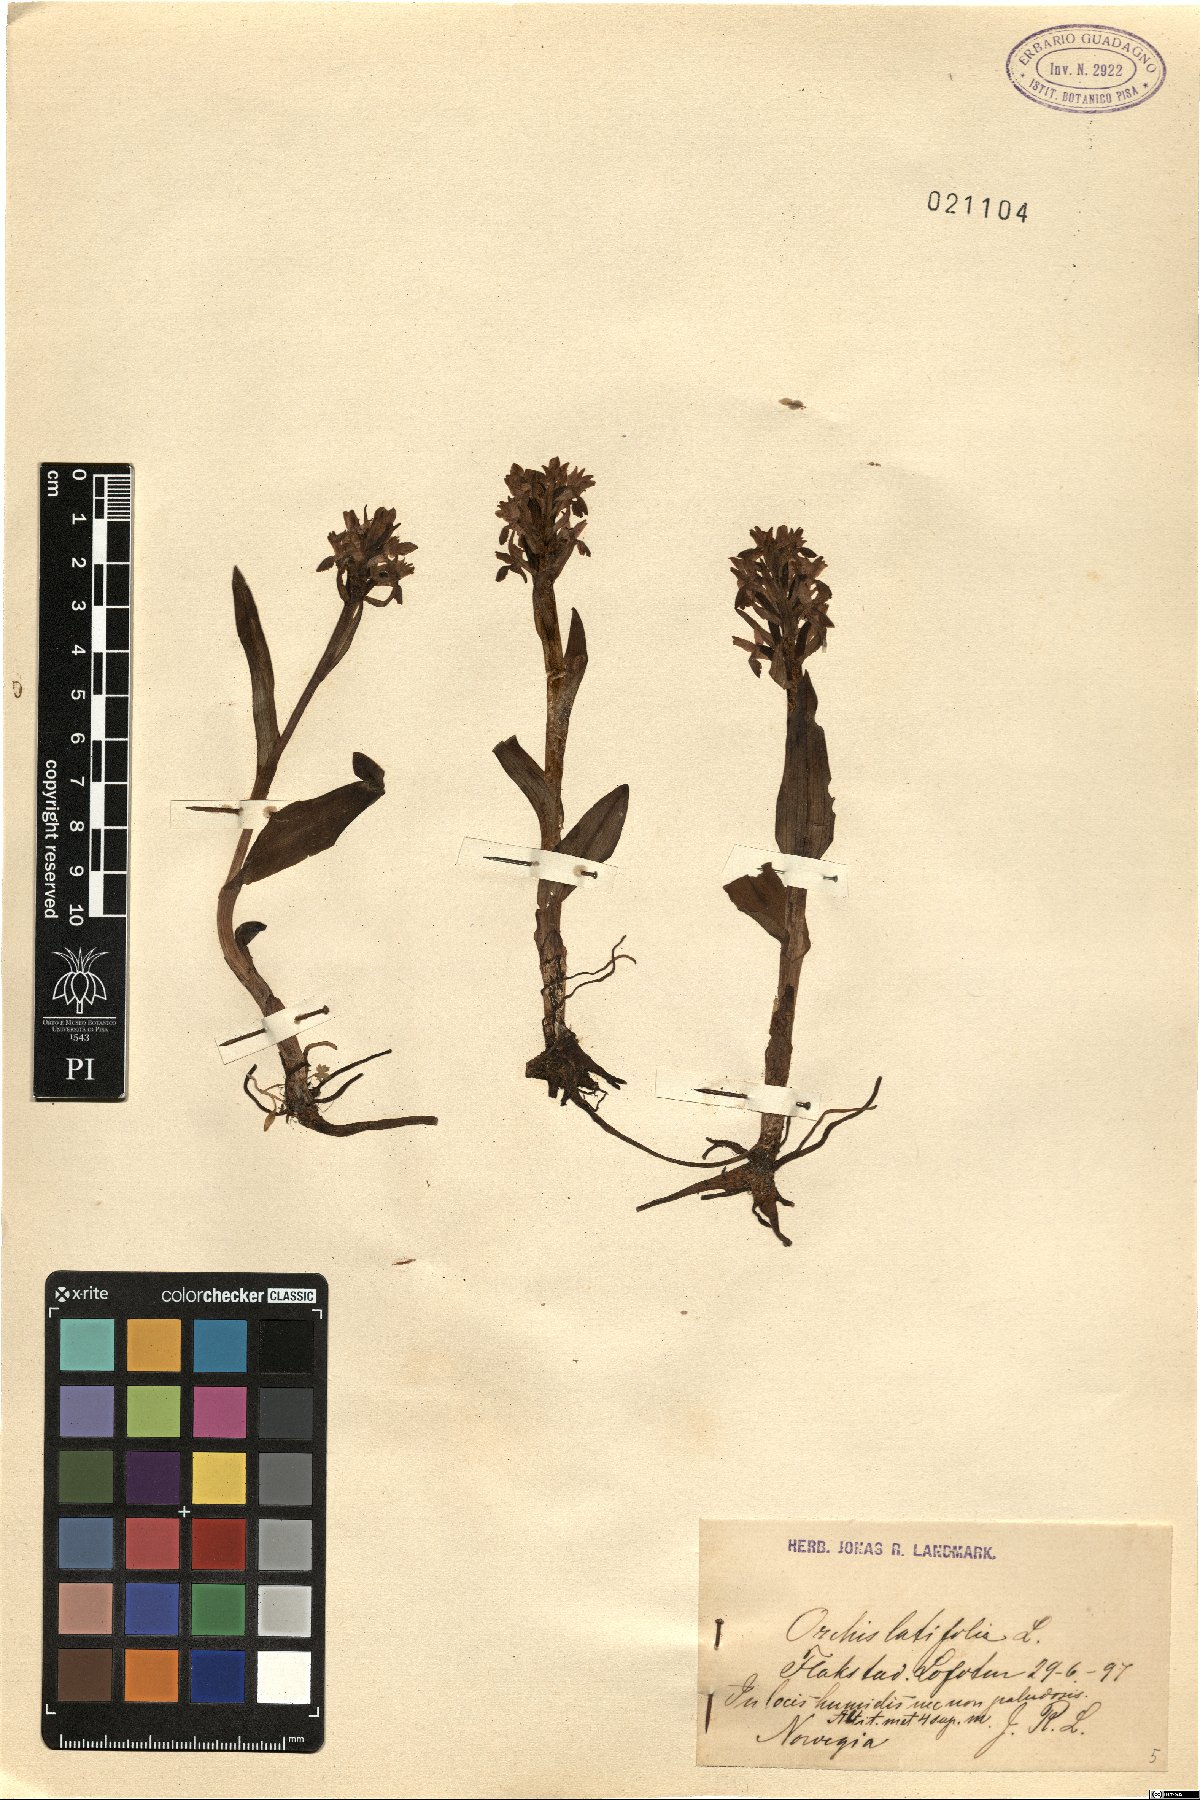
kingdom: Plantae
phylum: Tracheophyta
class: Liliopsida
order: Asparagales
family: Orchidaceae
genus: Dactylorhiza
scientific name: Dactylorhiza incarnata
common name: Early marsh-orchid
